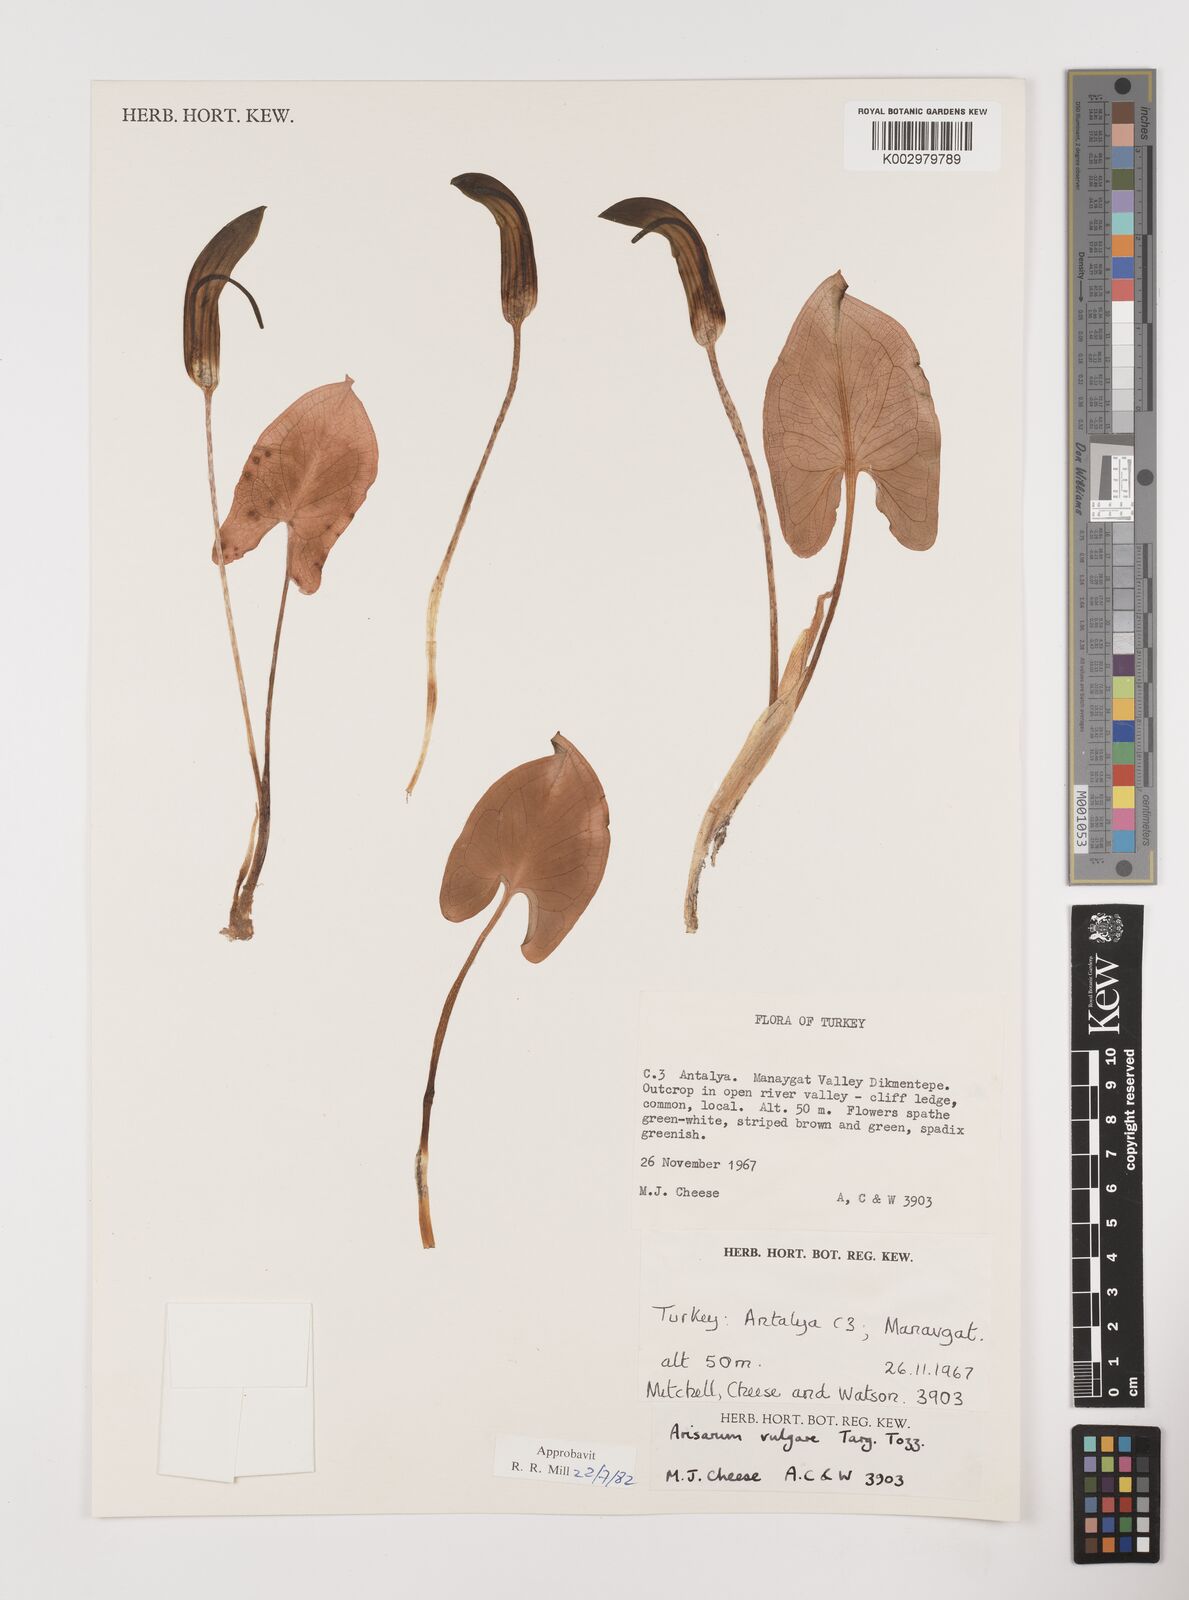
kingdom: Plantae
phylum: Tracheophyta
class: Liliopsida
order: Alismatales
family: Araceae
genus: Arisarum
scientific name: Arisarum vulgare
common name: Common arisarum
